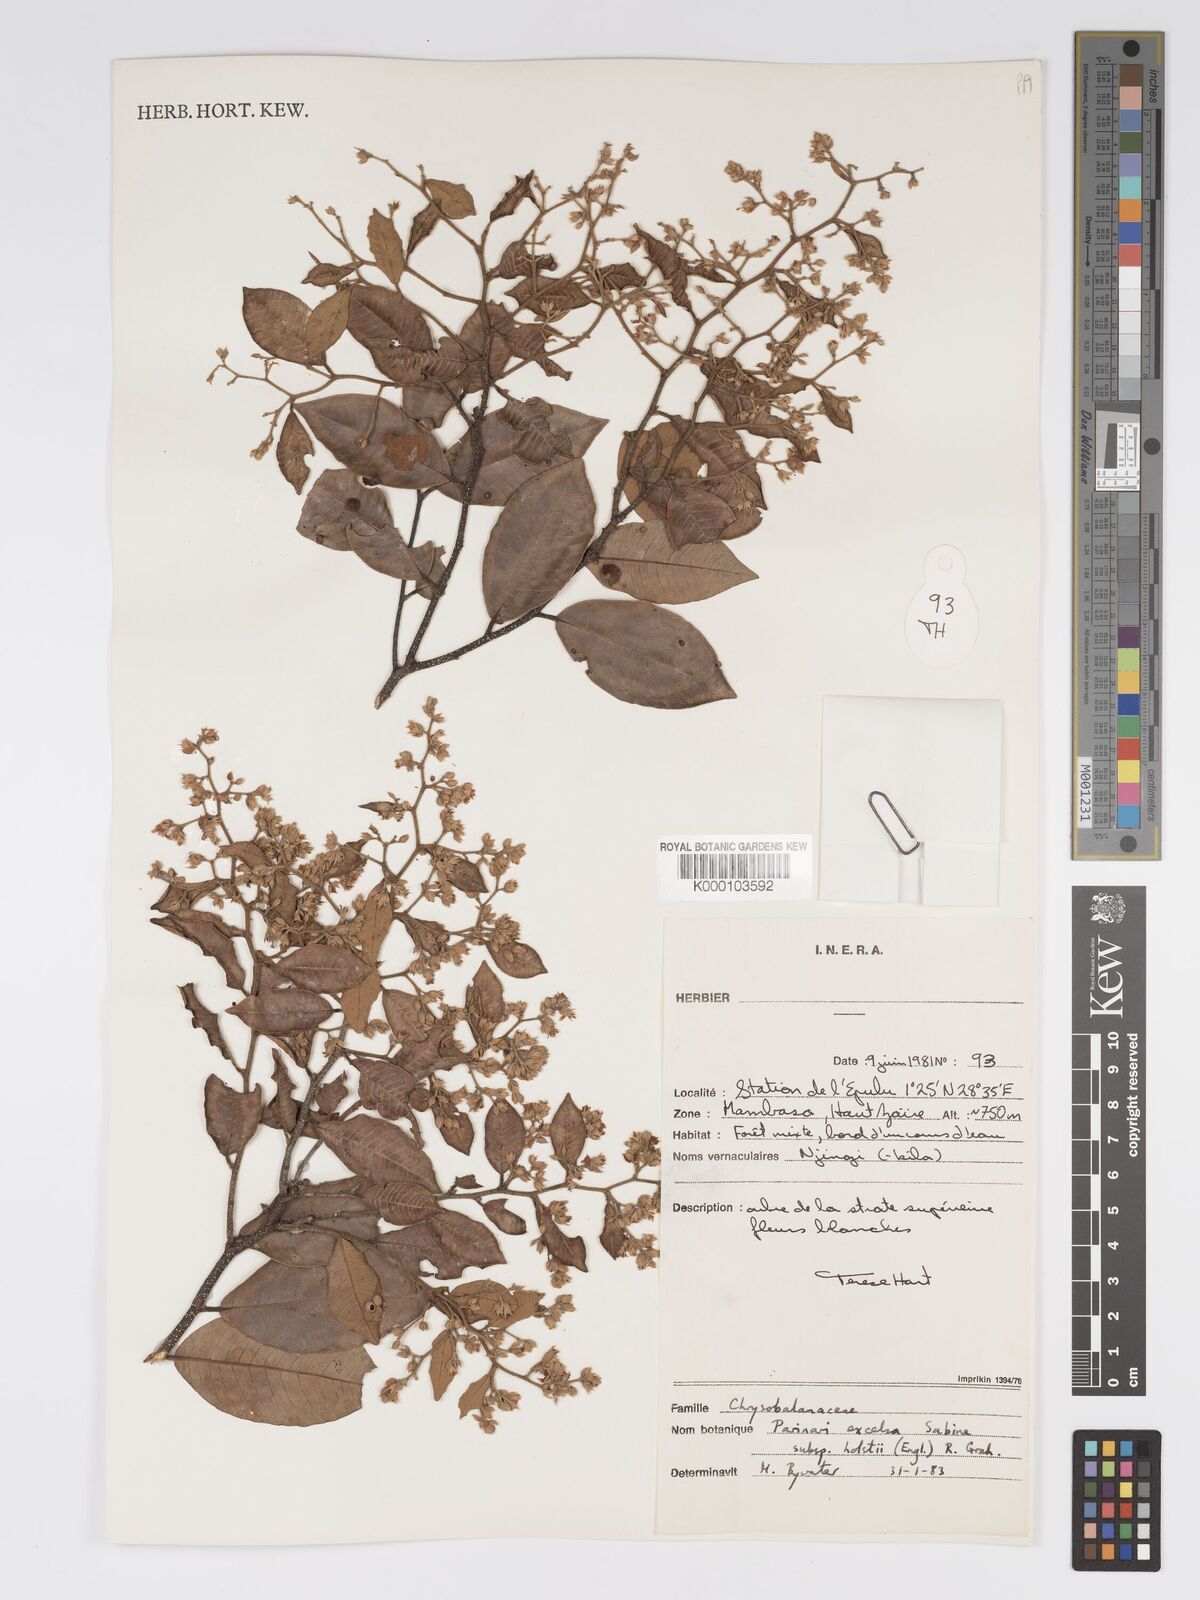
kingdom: Plantae
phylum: Tracheophyta
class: Magnoliopsida
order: Malpighiales
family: Chrysobalanaceae
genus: Parinari
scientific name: Parinari excelsa
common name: Guinea-plum
